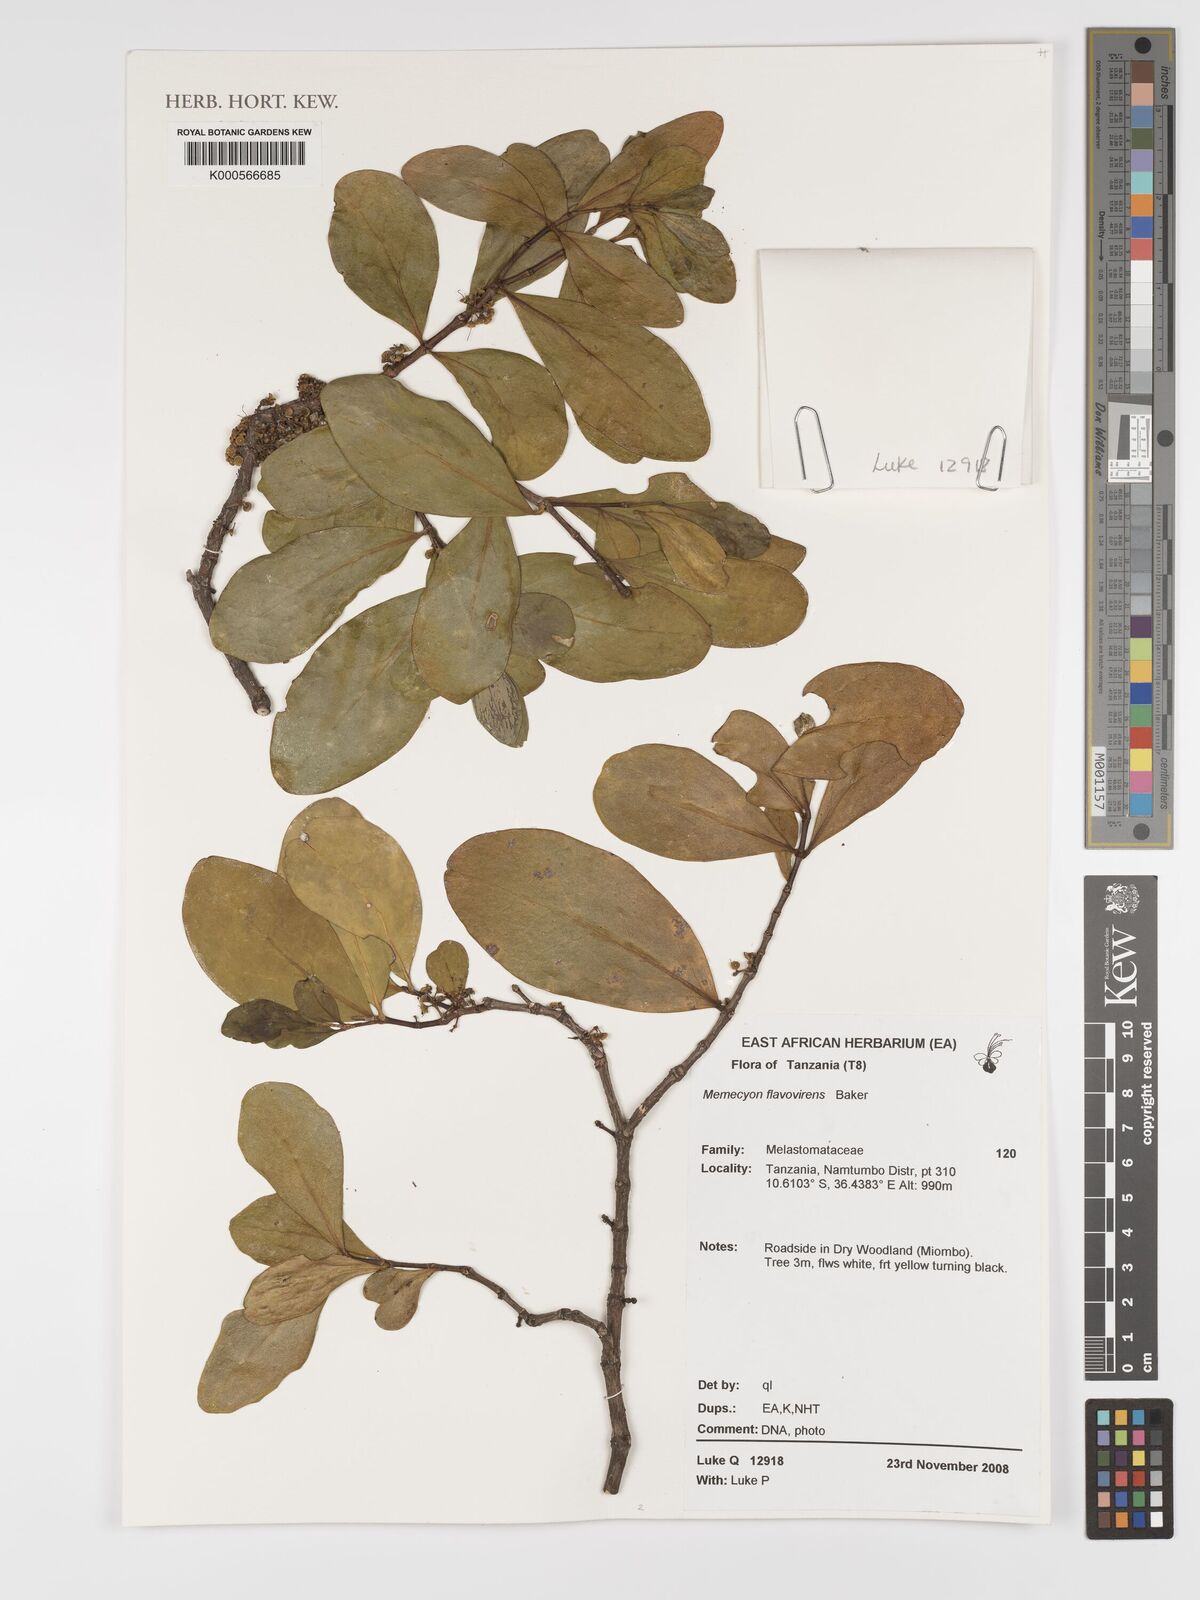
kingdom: Plantae
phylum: Tracheophyta
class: Magnoliopsida
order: Myrtales
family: Melastomataceae
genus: Memecylon
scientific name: Memecylon flavovirens
